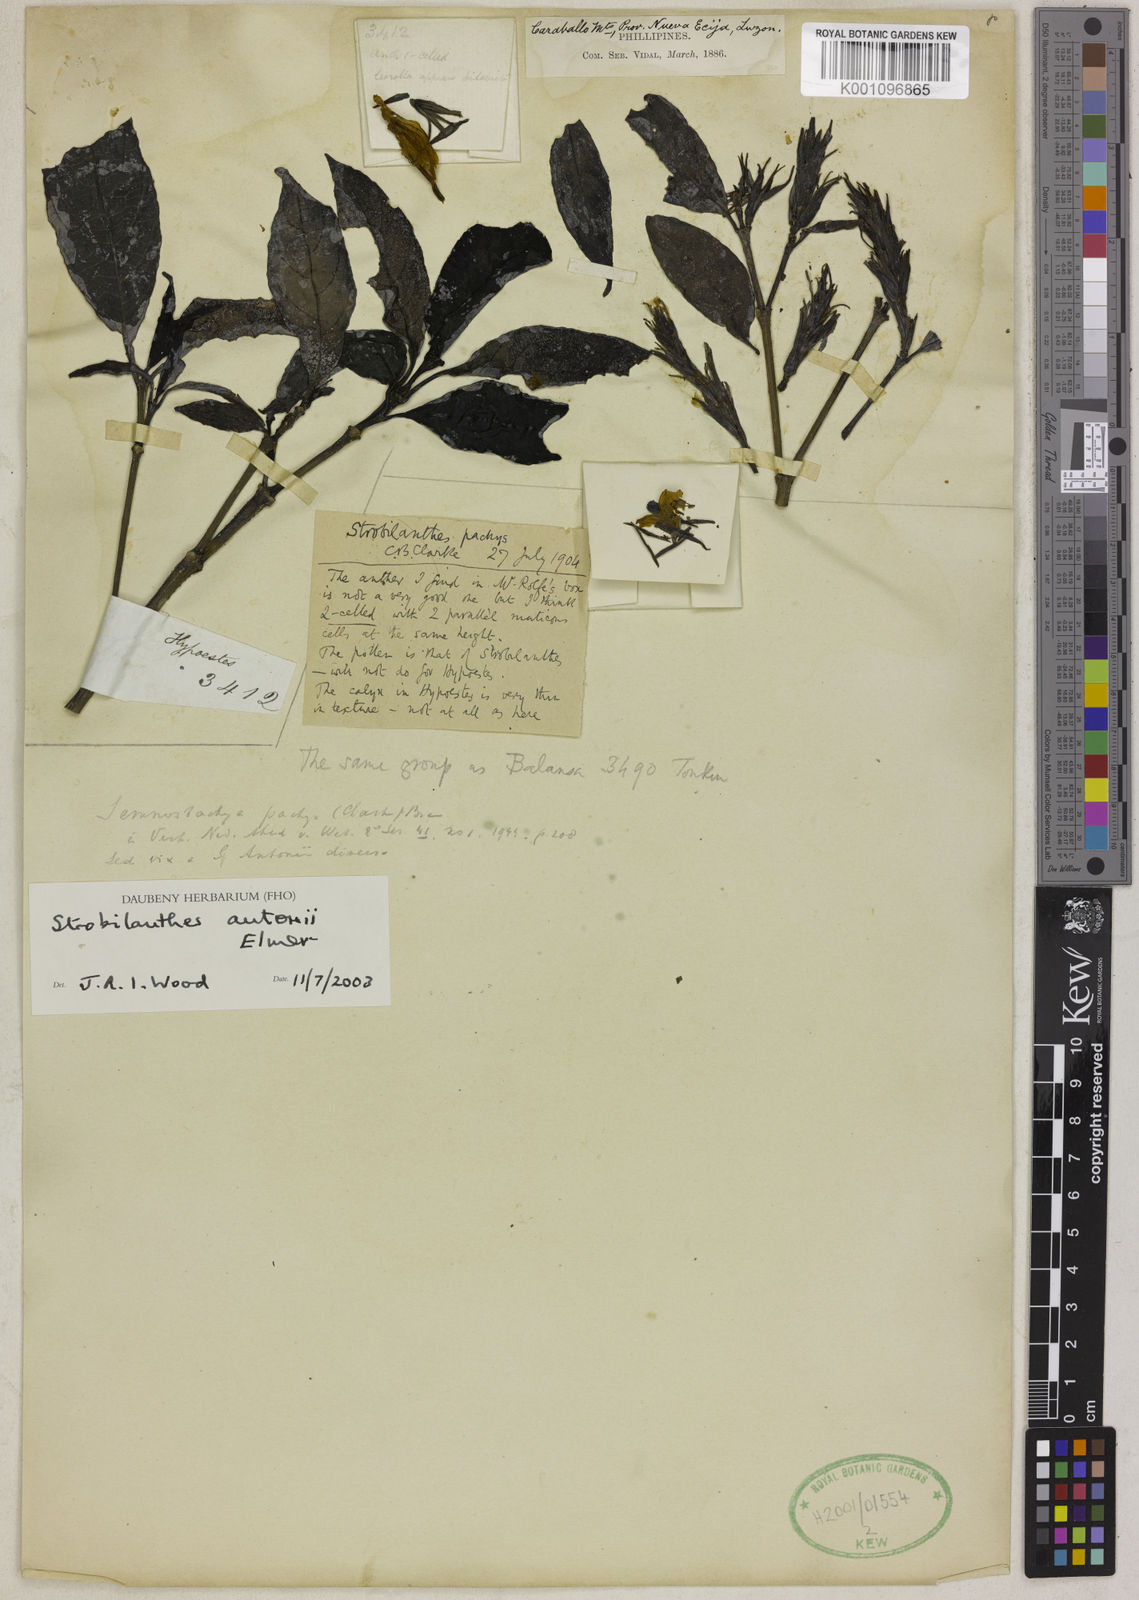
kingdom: Plantae
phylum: Tracheophyta
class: Magnoliopsida
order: Lamiales
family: Acanthaceae
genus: Strobilanthes
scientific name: Strobilanthes antonii
